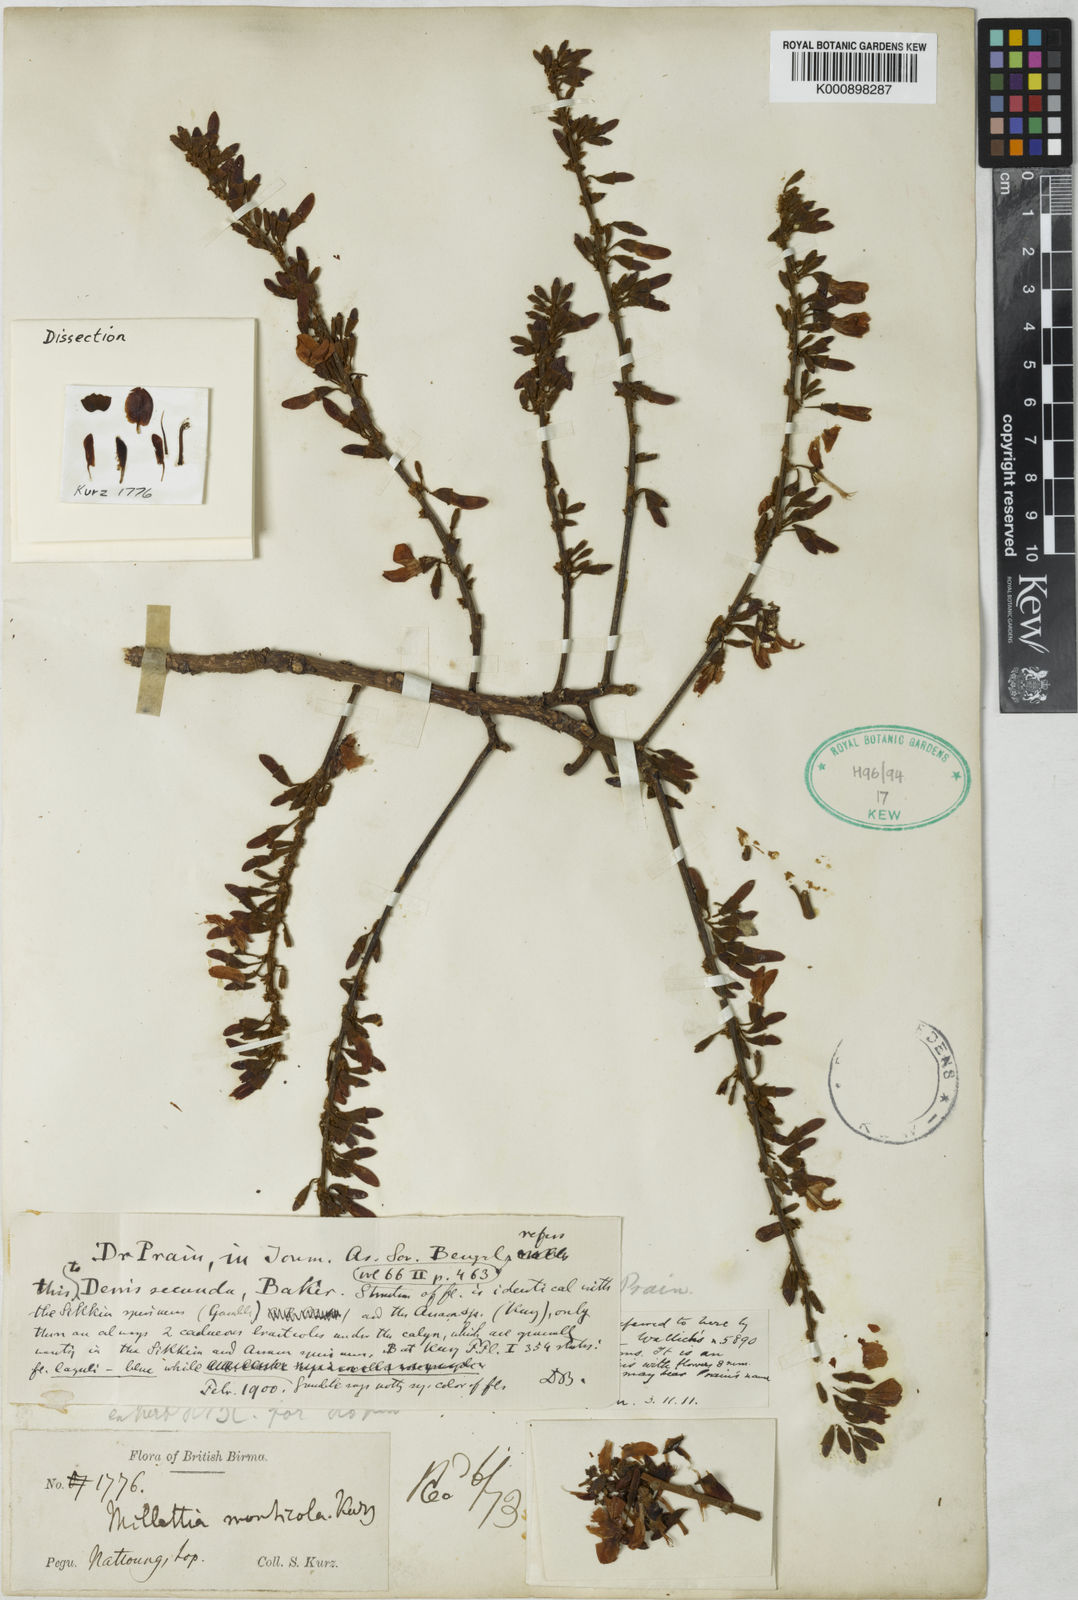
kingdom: Plantae
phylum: Tracheophyta
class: Magnoliopsida
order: Fabales
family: Fabaceae
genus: Derris
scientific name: Derris monticola
